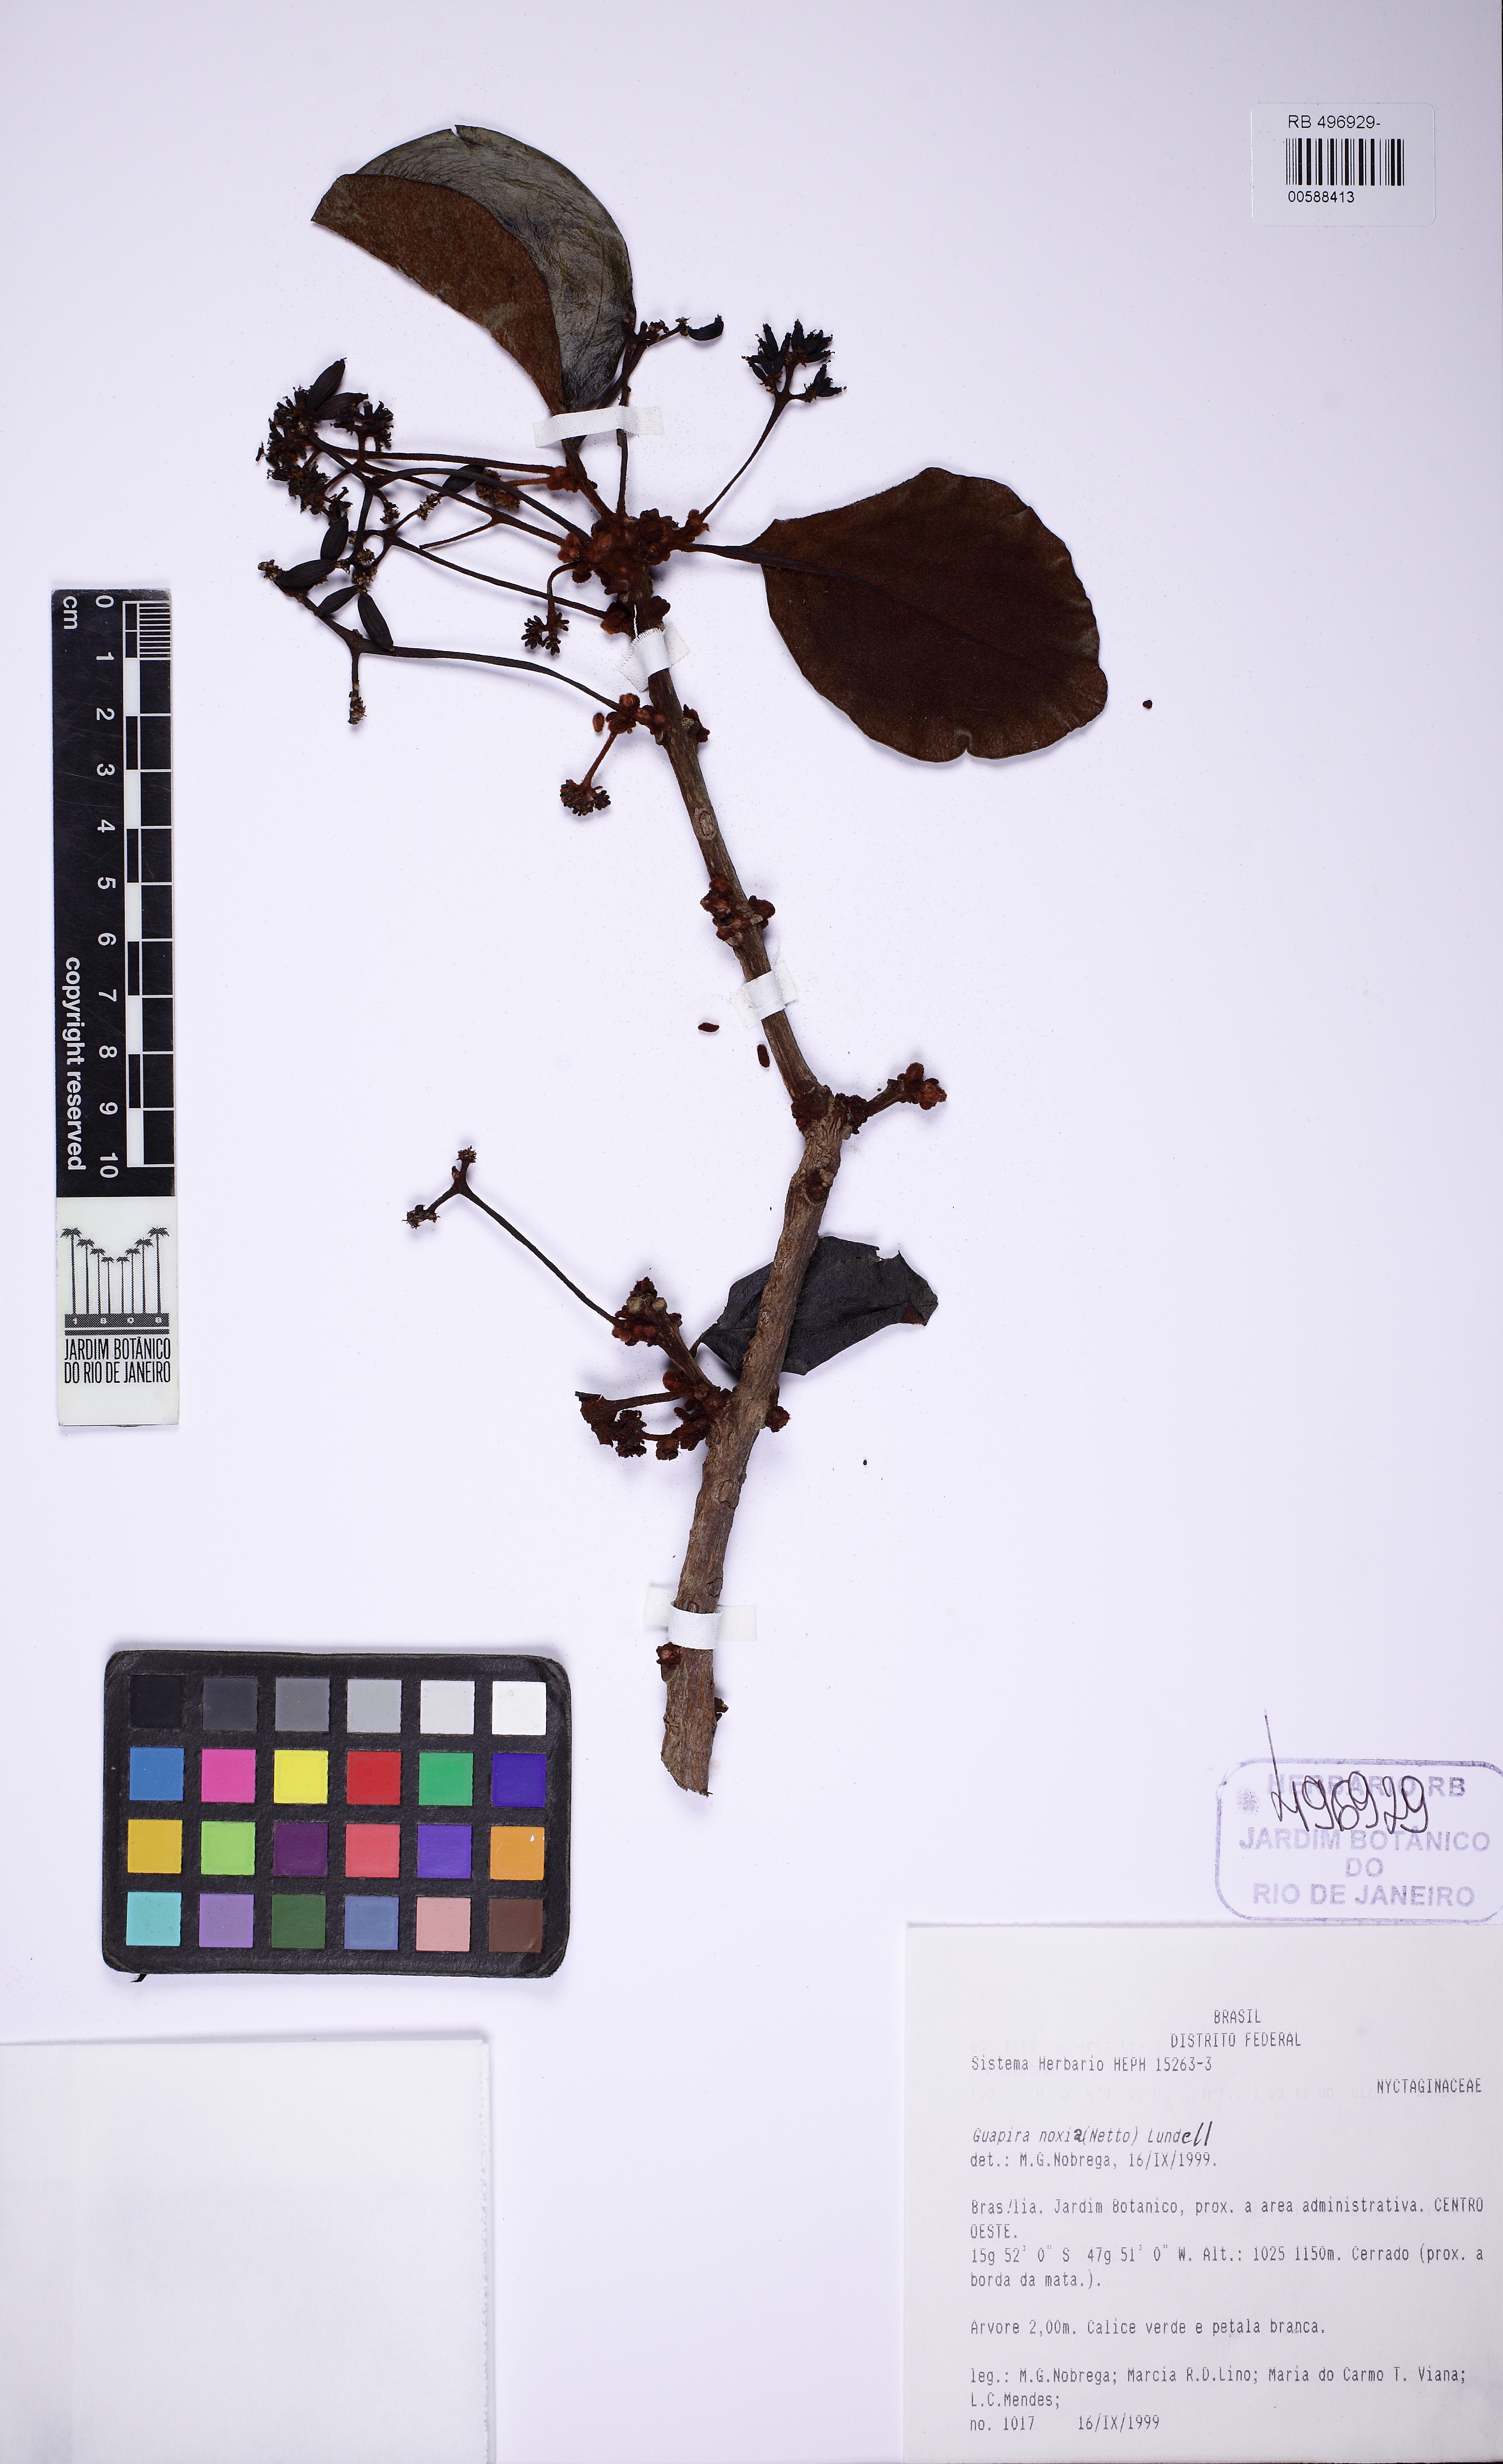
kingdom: Plantae
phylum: Tracheophyta
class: Magnoliopsida
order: Caryophyllales
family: Nyctaginaceae
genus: Guapira
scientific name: Guapira noxia
